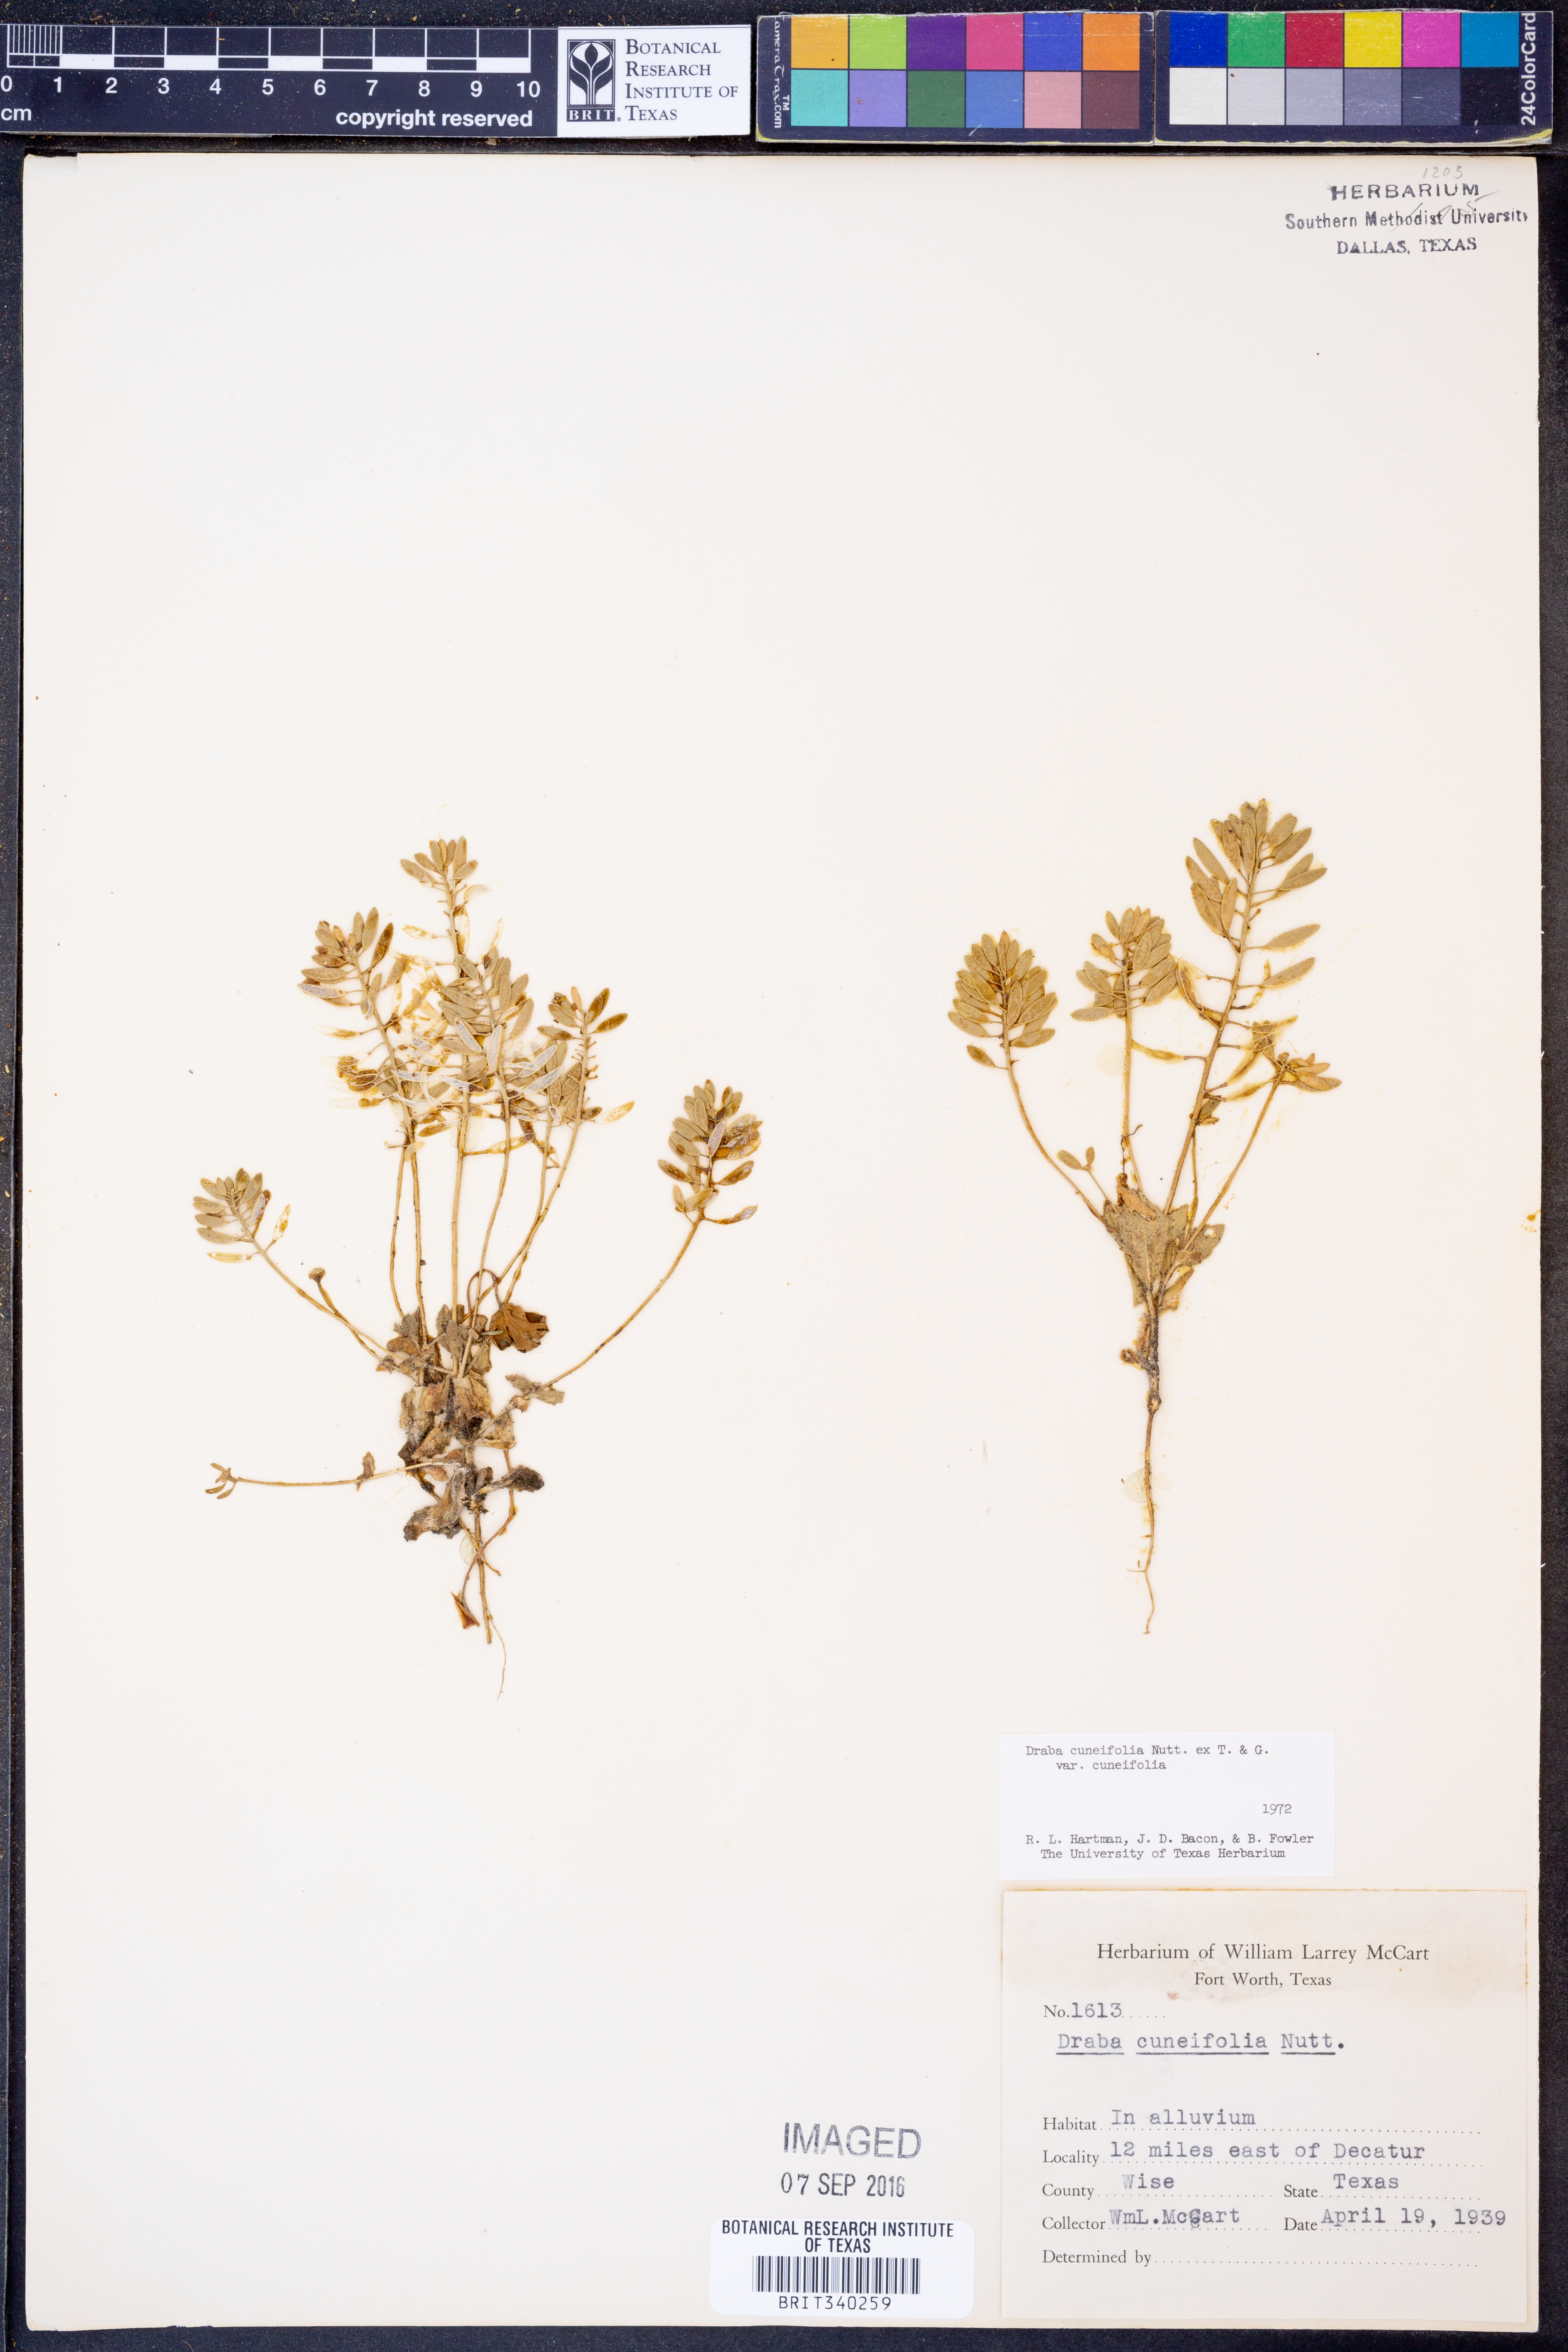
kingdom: Plantae
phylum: Tracheophyta
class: Magnoliopsida
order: Brassicales
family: Brassicaceae
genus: Tomostima
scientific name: Tomostima cuneifolia
